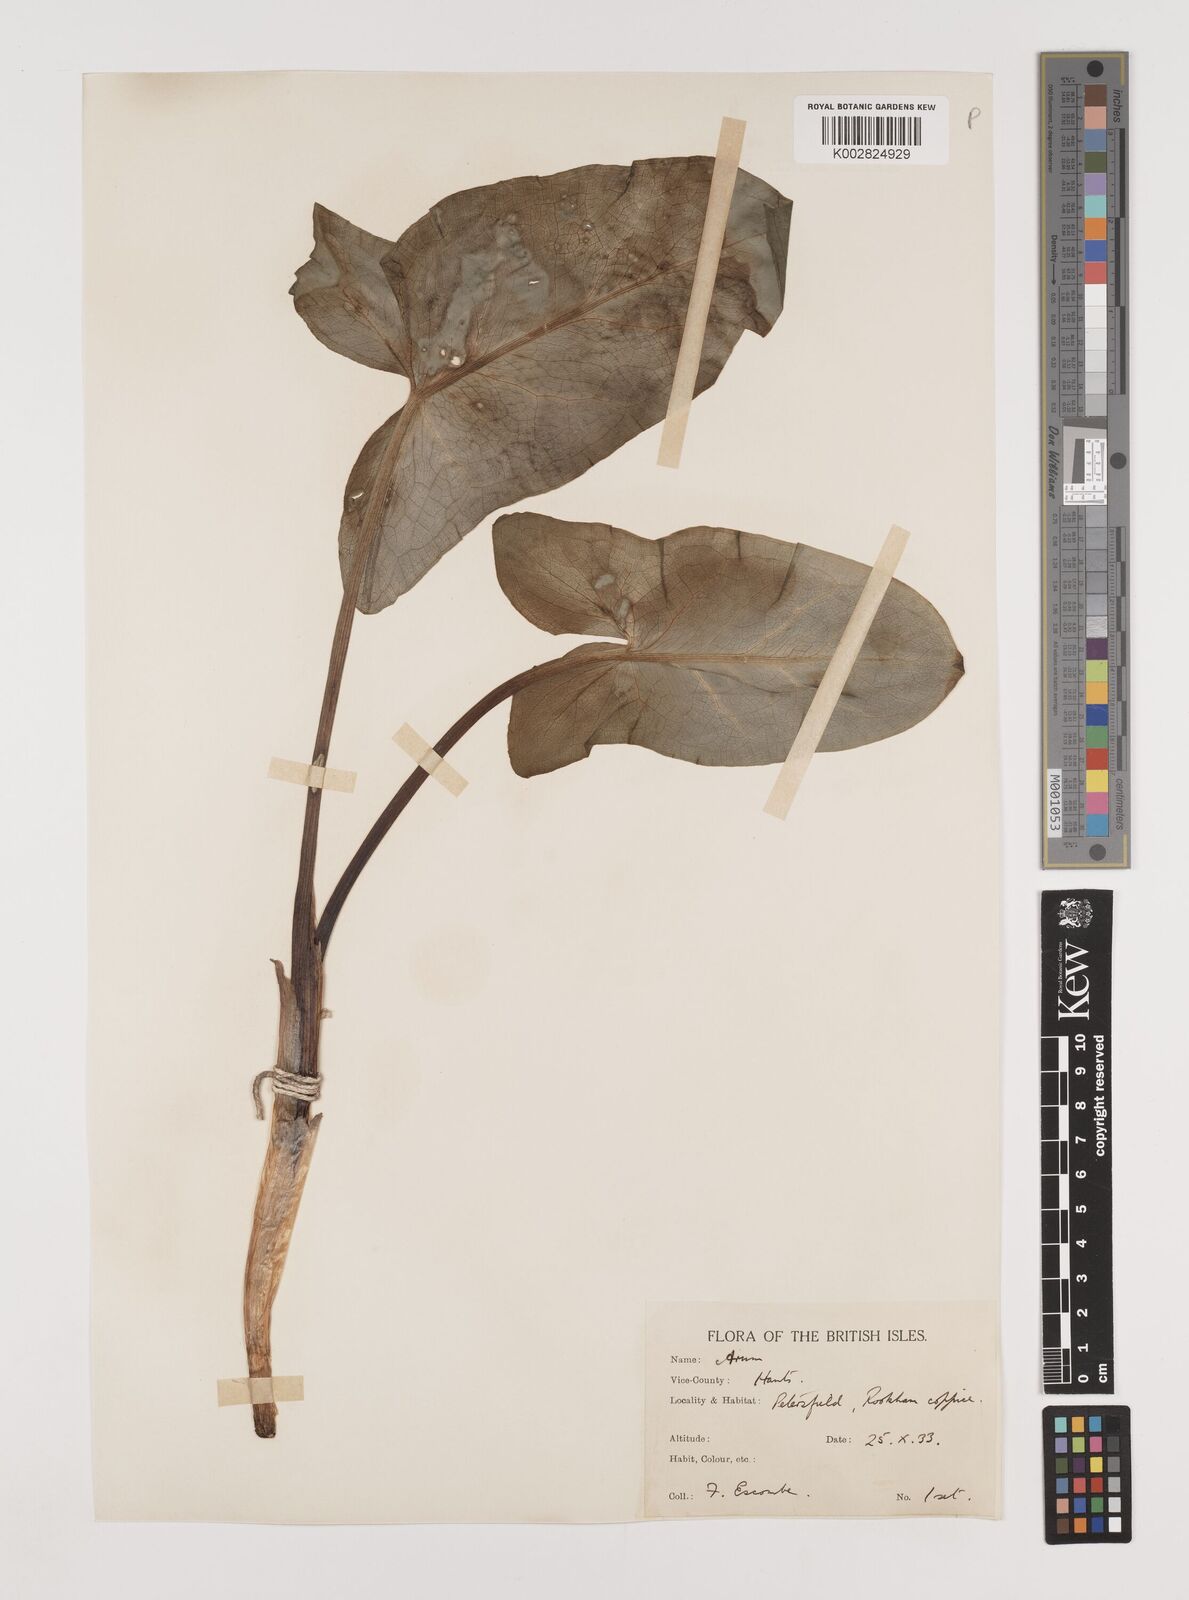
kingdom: Plantae
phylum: Tracheophyta
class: Liliopsida
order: Alismatales
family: Araceae
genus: Arum
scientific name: Arum italicum
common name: Italian lords-and-ladies
